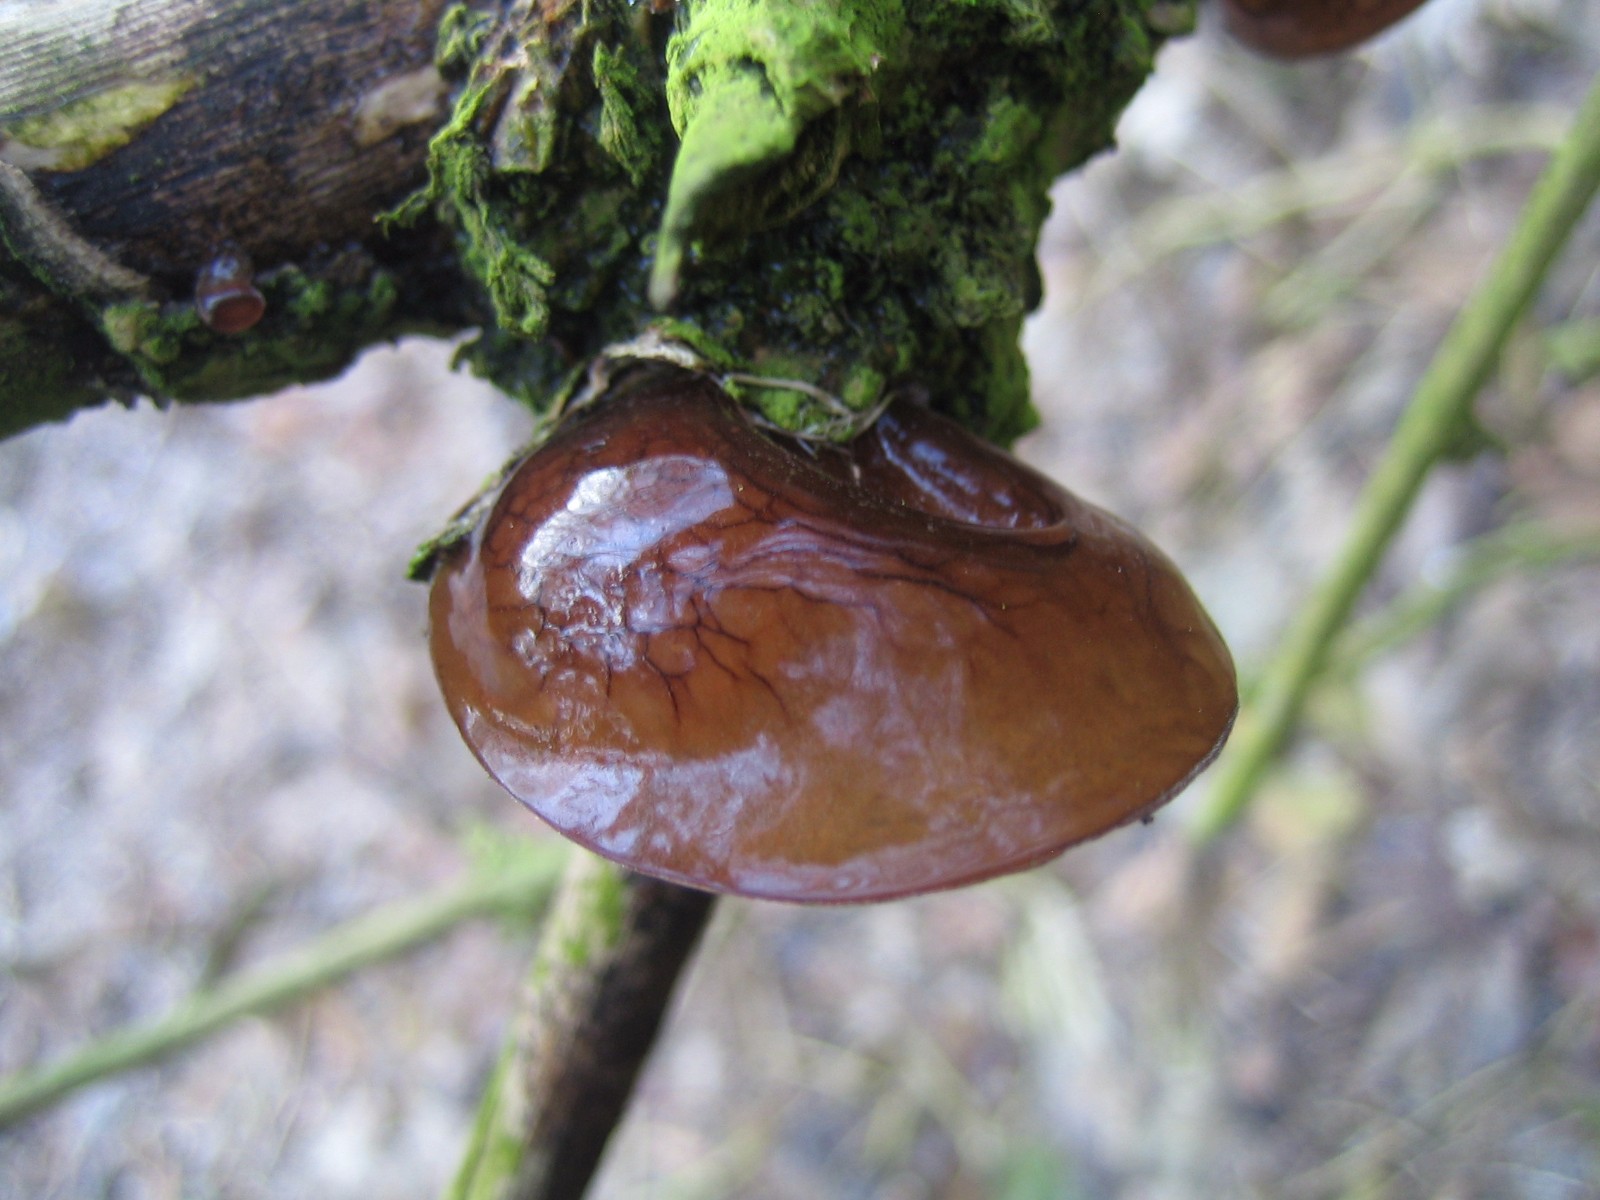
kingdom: Fungi
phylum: Basidiomycota
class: Agaricomycetes
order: Auriculariales
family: Auriculariaceae
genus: Auricularia
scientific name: Auricularia auricula-judae
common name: almindelig judasøre
